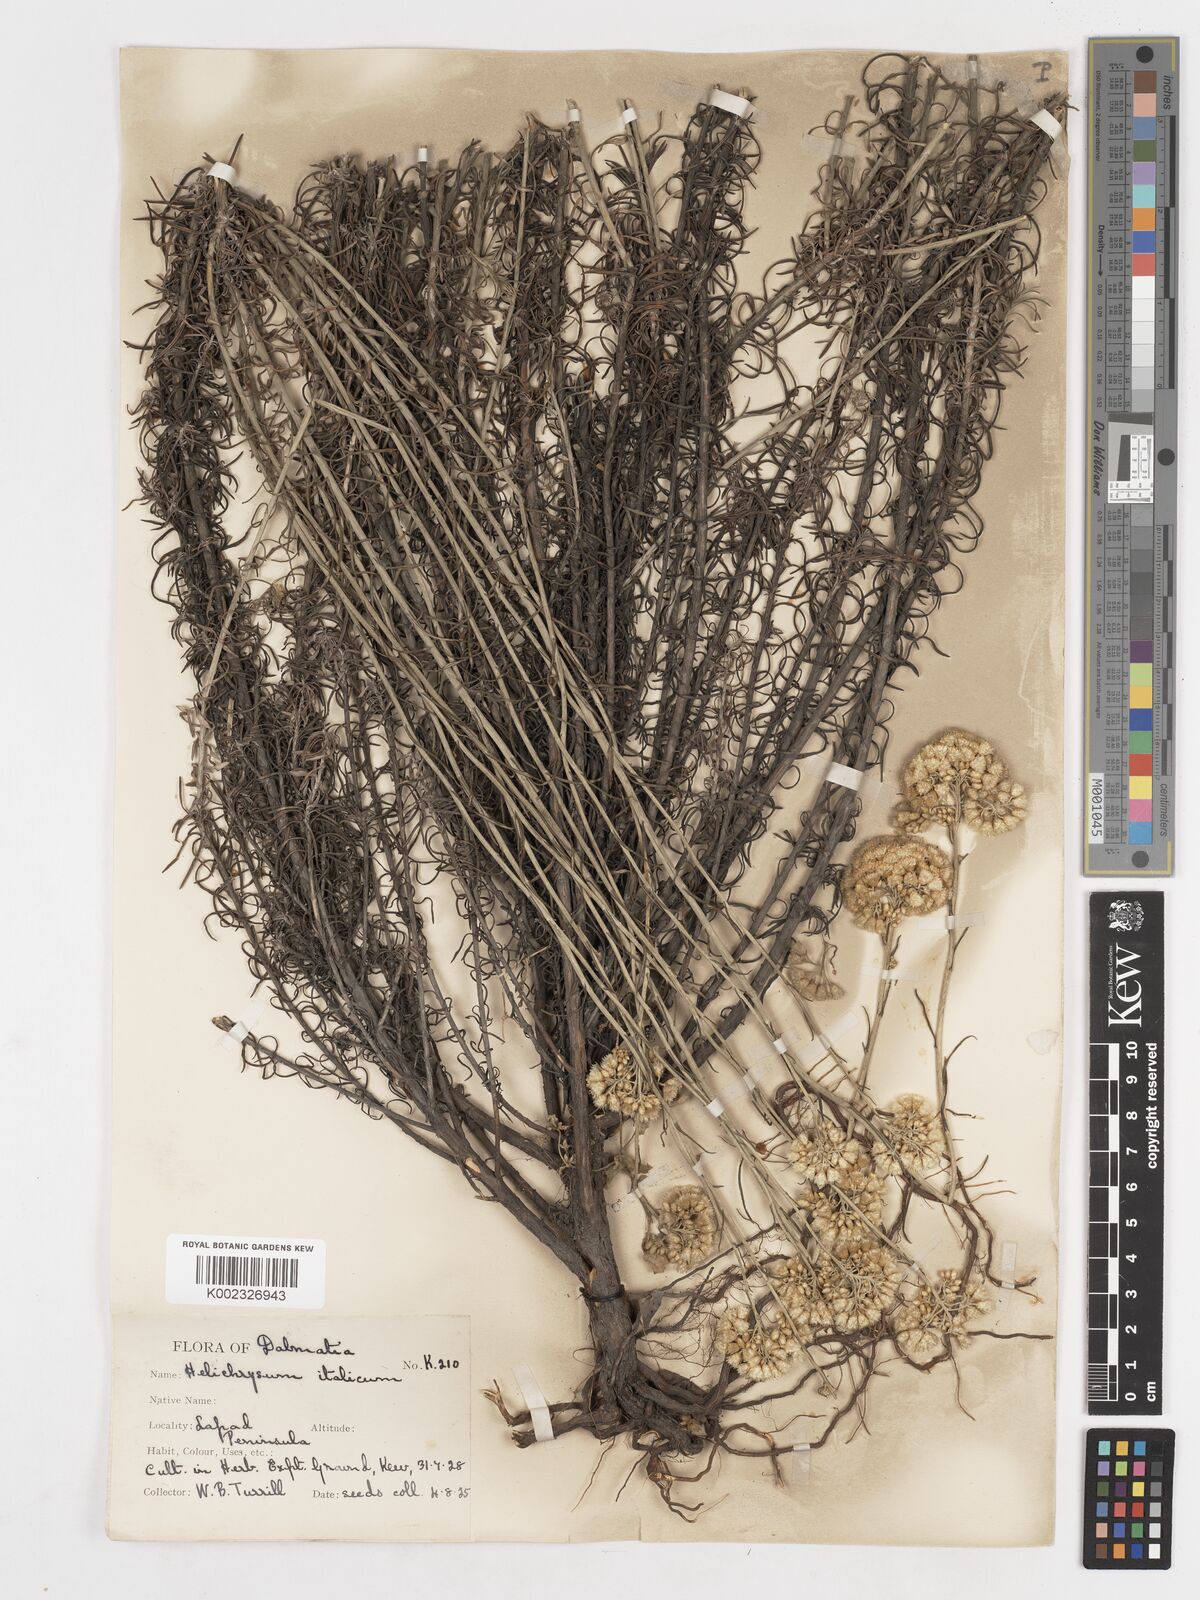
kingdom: Plantae
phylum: Tracheophyta
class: Magnoliopsida
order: Asterales
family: Asteraceae
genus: Helichrysum
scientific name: Helichrysum italicum
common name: Curryplant
